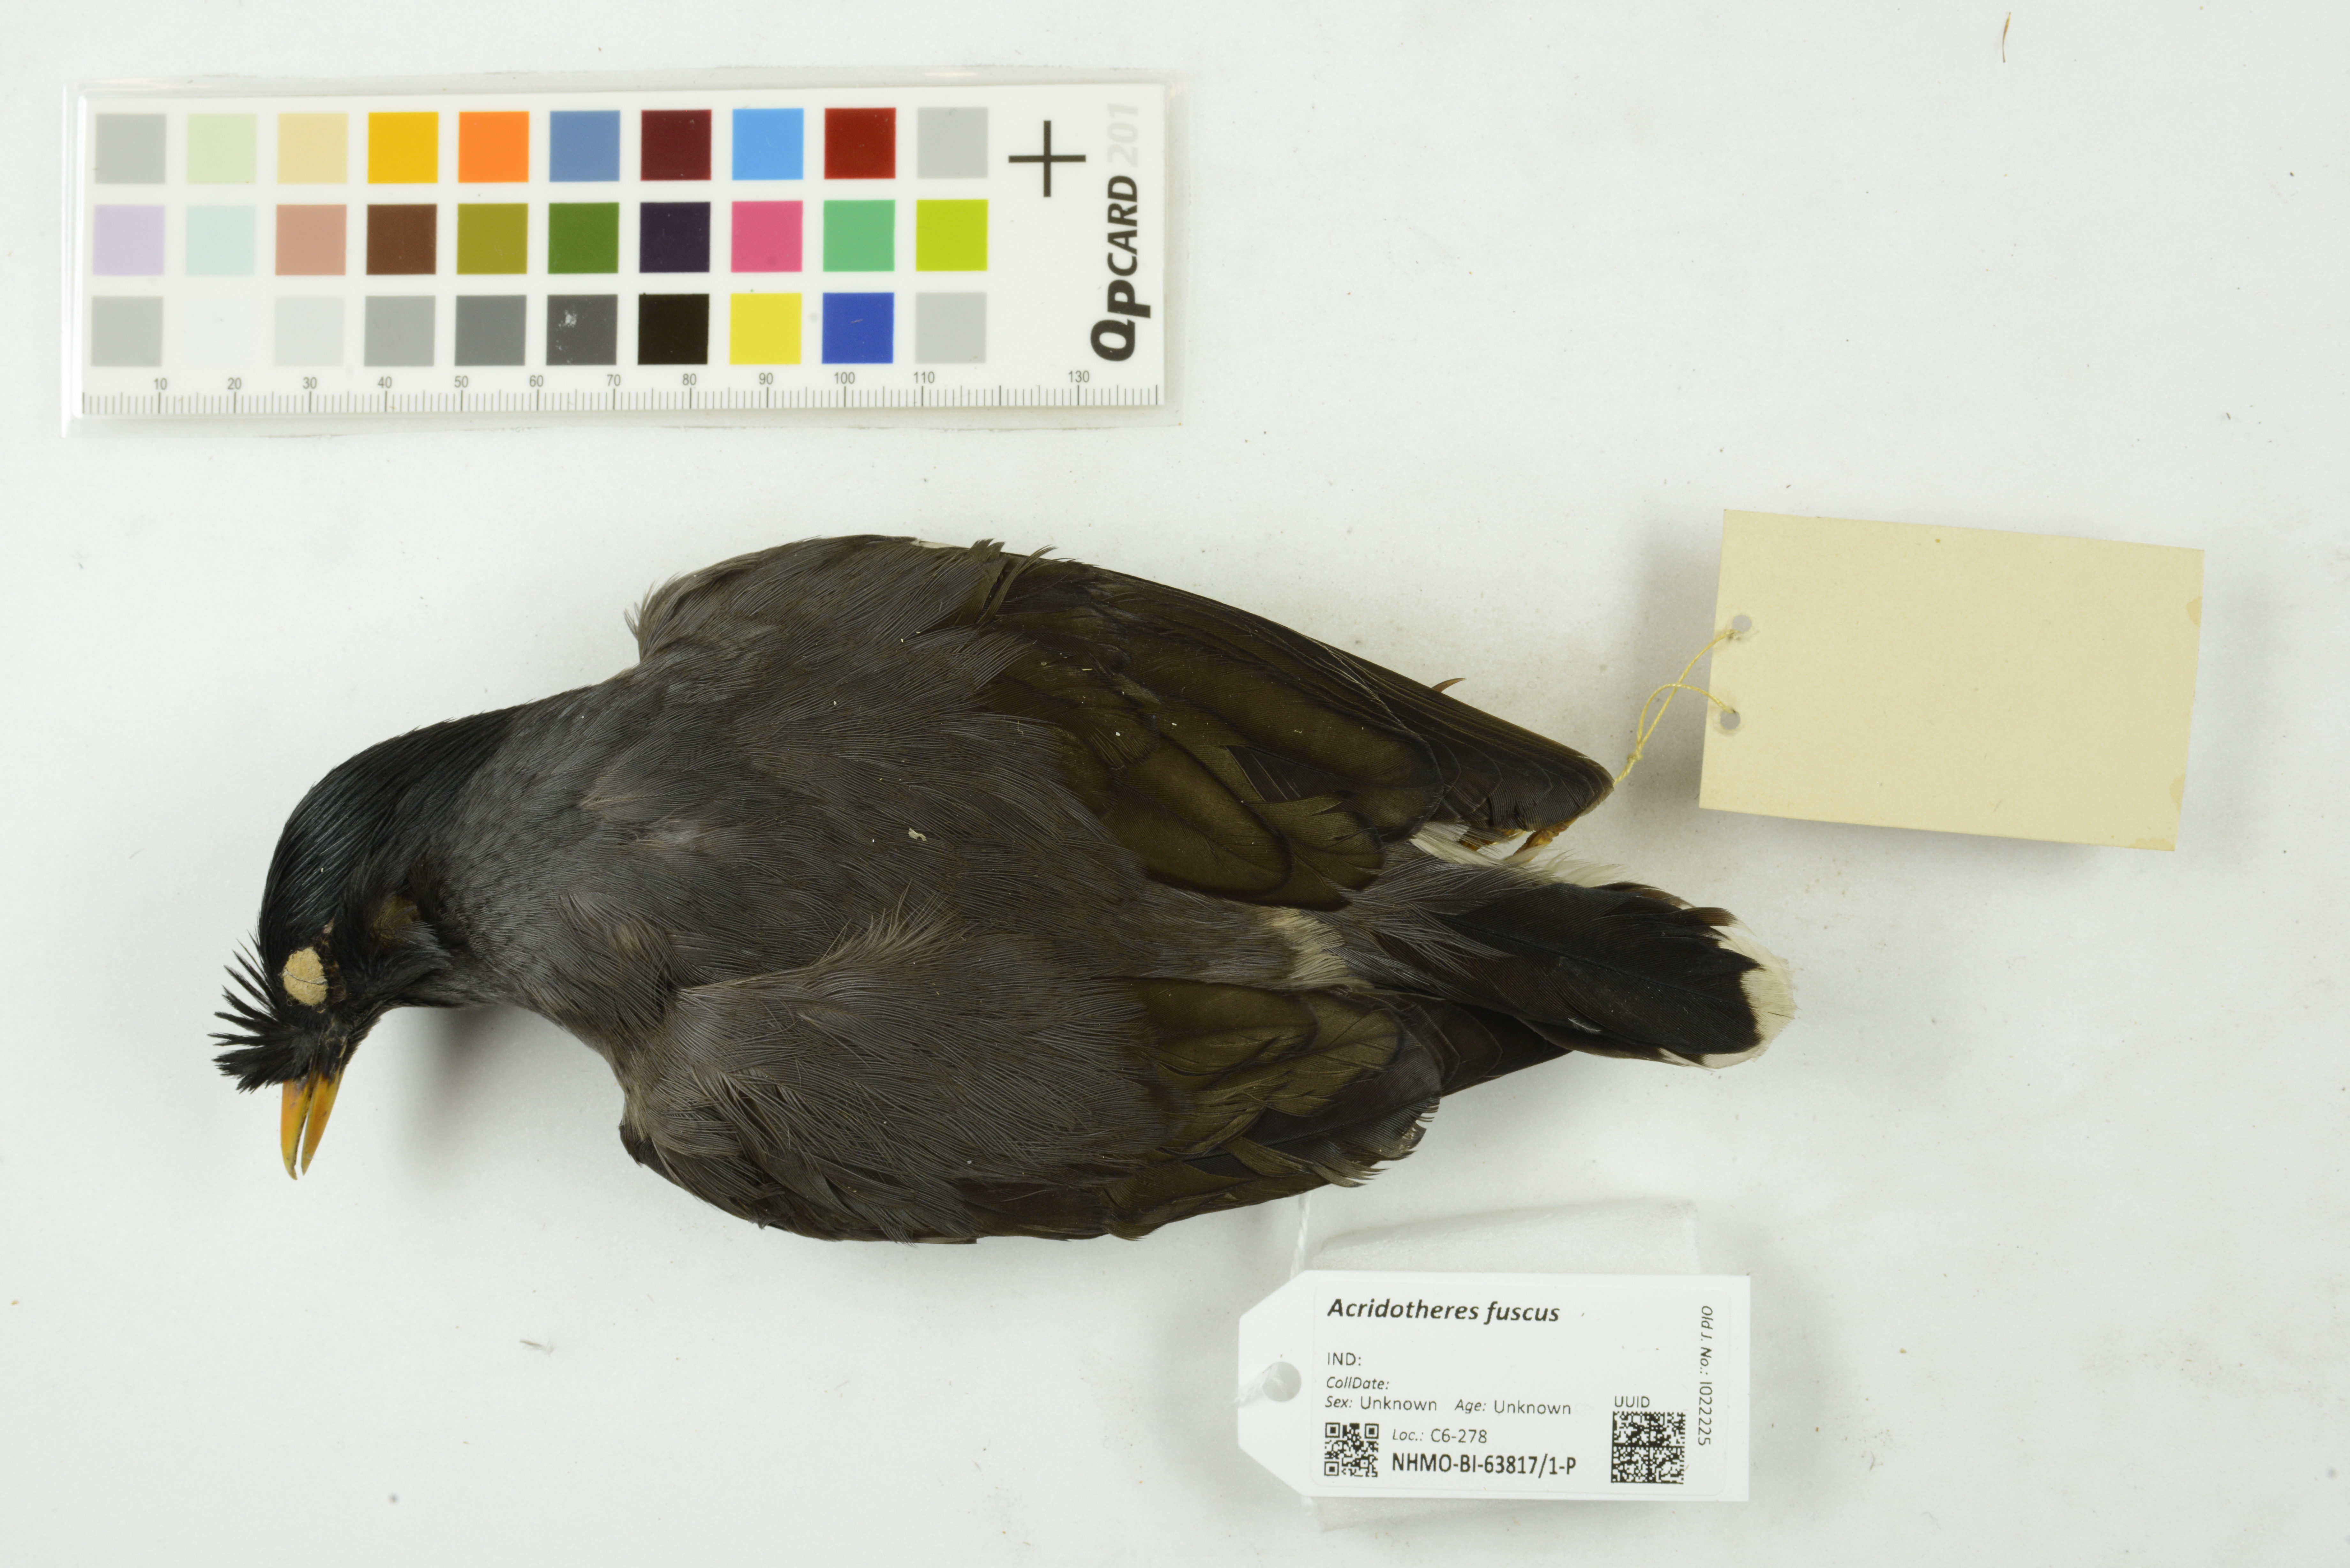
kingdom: Animalia
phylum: Chordata
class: Aves
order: Passeriformes
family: Sturnidae
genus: Acridotheres
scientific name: Acridotheres fuscus
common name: Jungle myna
